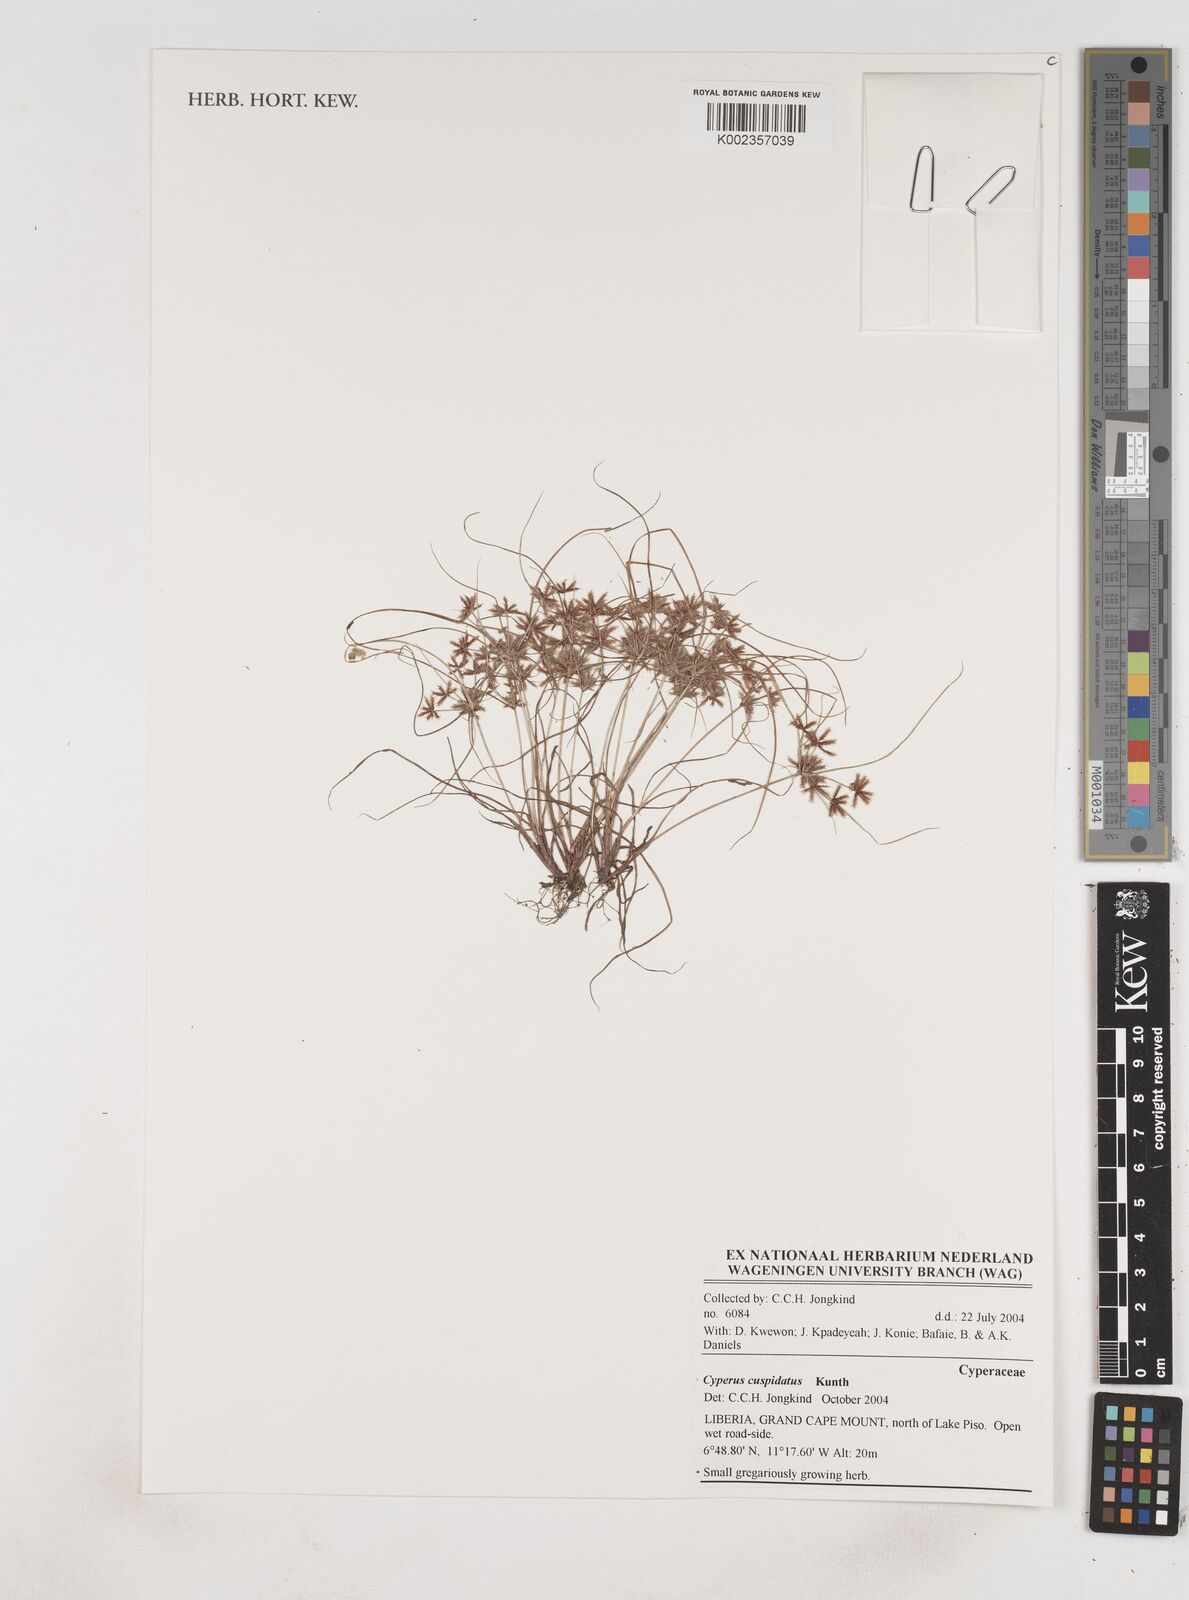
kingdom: Plantae
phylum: Tracheophyta
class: Liliopsida
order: Poales
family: Cyperaceae
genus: Cyperus
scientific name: Cyperus
